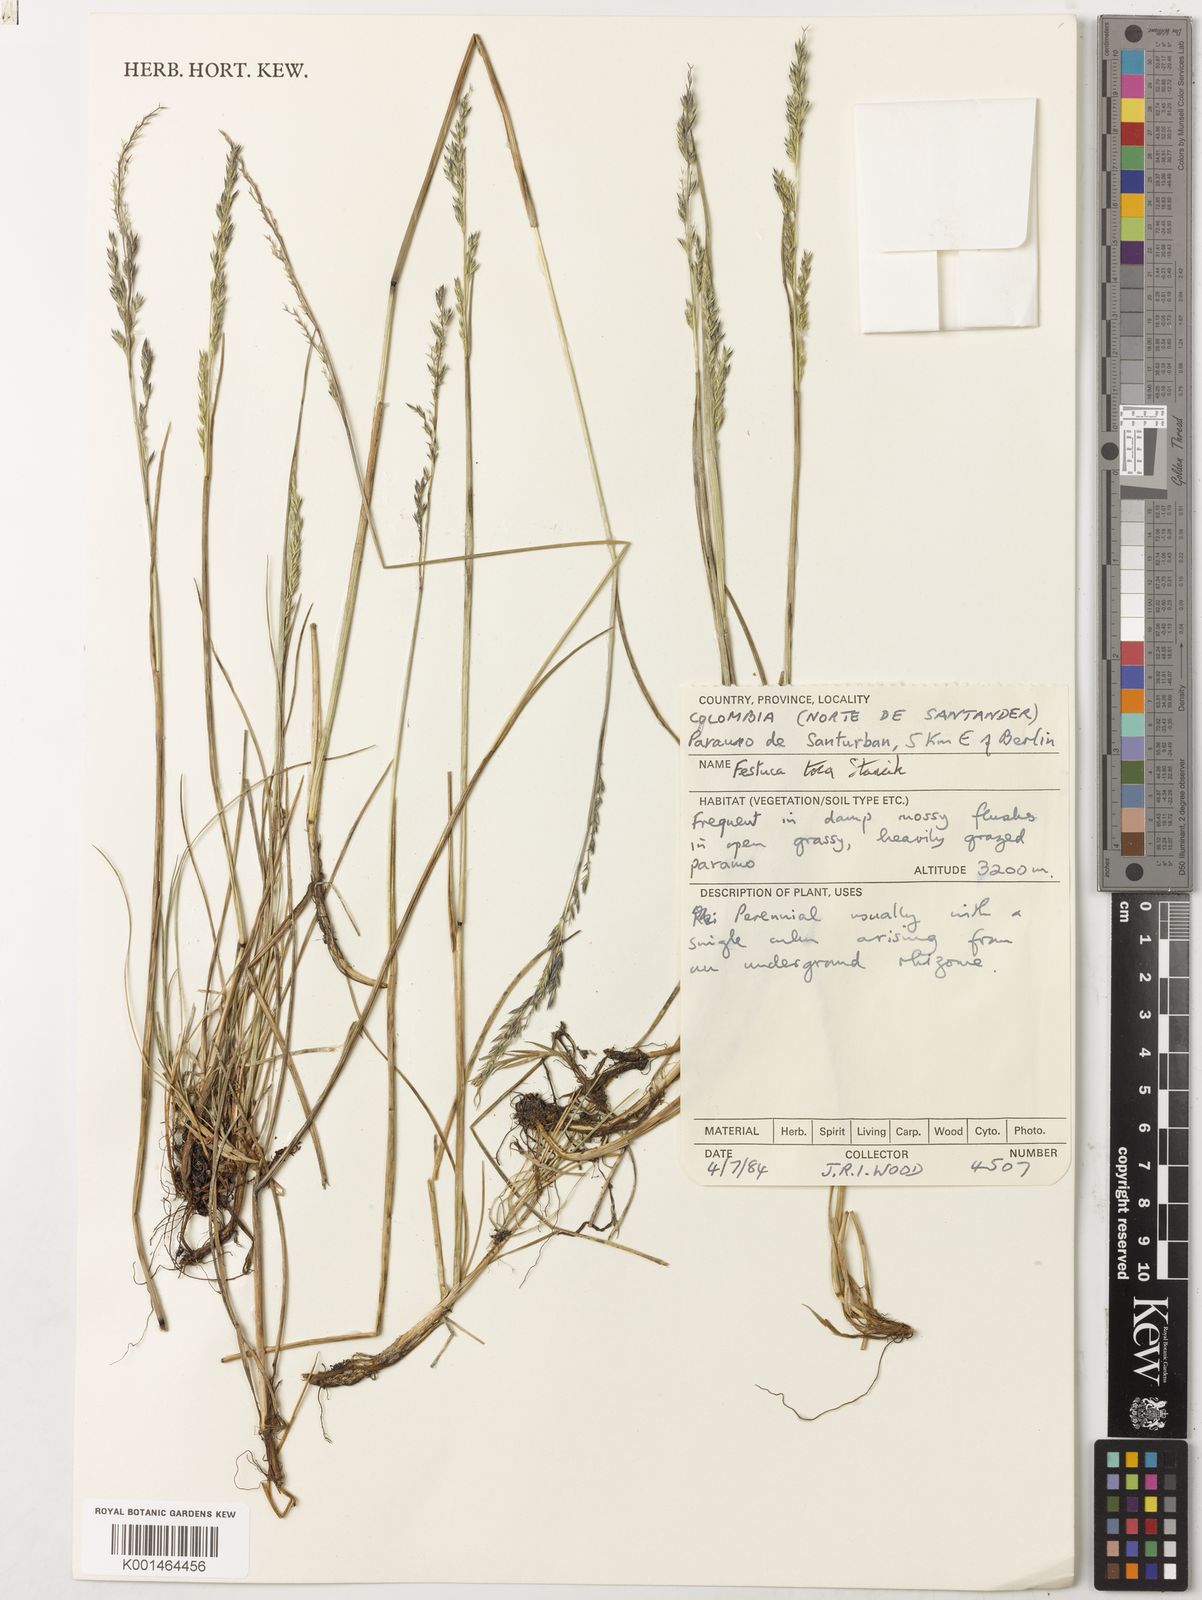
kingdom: Plantae
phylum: Tracheophyta
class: Liliopsida
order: Poales
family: Poaceae
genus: Festuca
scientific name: Festuca
